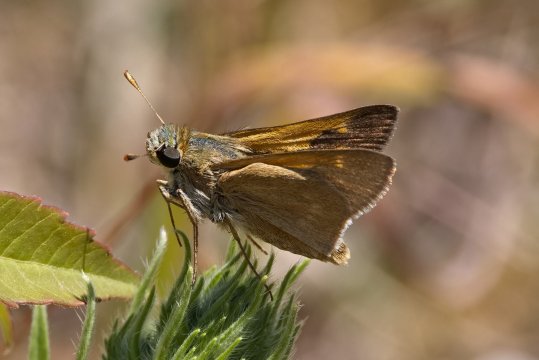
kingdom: Animalia
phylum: Arthropoda
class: Insecta
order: Lepidoptera
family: Hesperiidae
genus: Polites
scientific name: Polites
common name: Crossline Skipper
